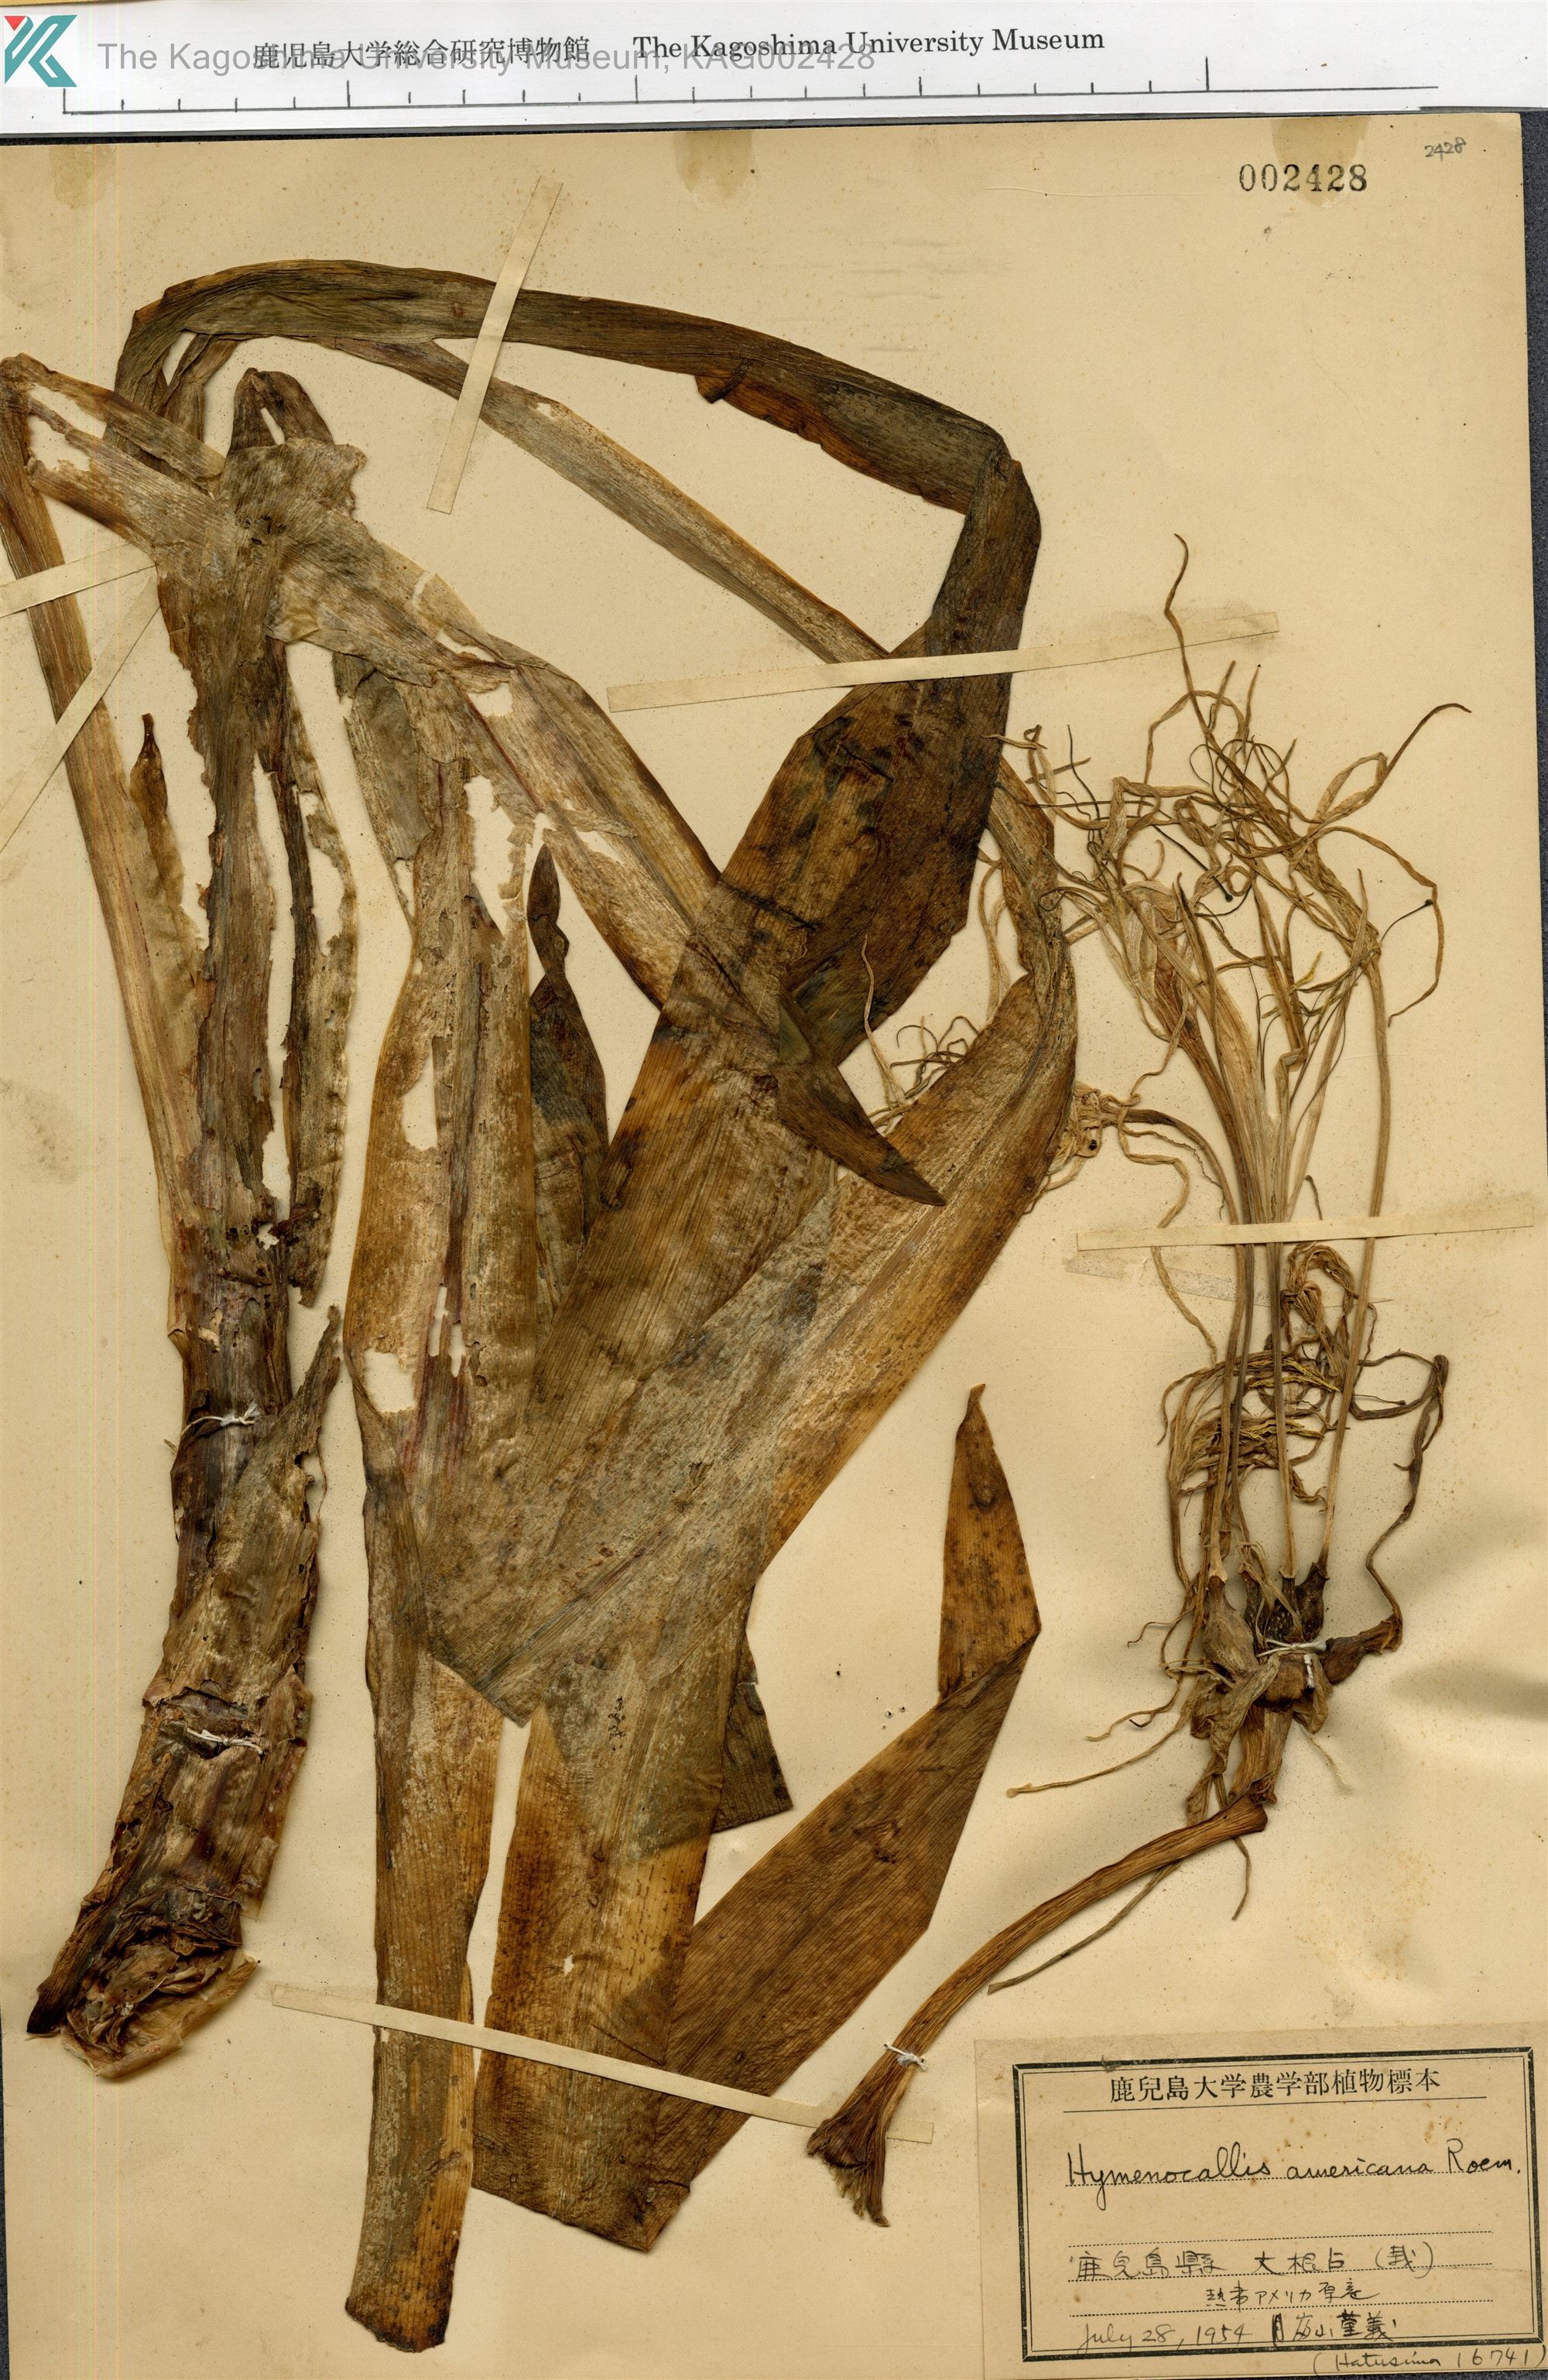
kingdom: Plantae
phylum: Tracheophyta
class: Liliopsida
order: Asparagales
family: Amaryllidaceae
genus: Hymenocallis
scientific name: Hymenocallis littoralis
